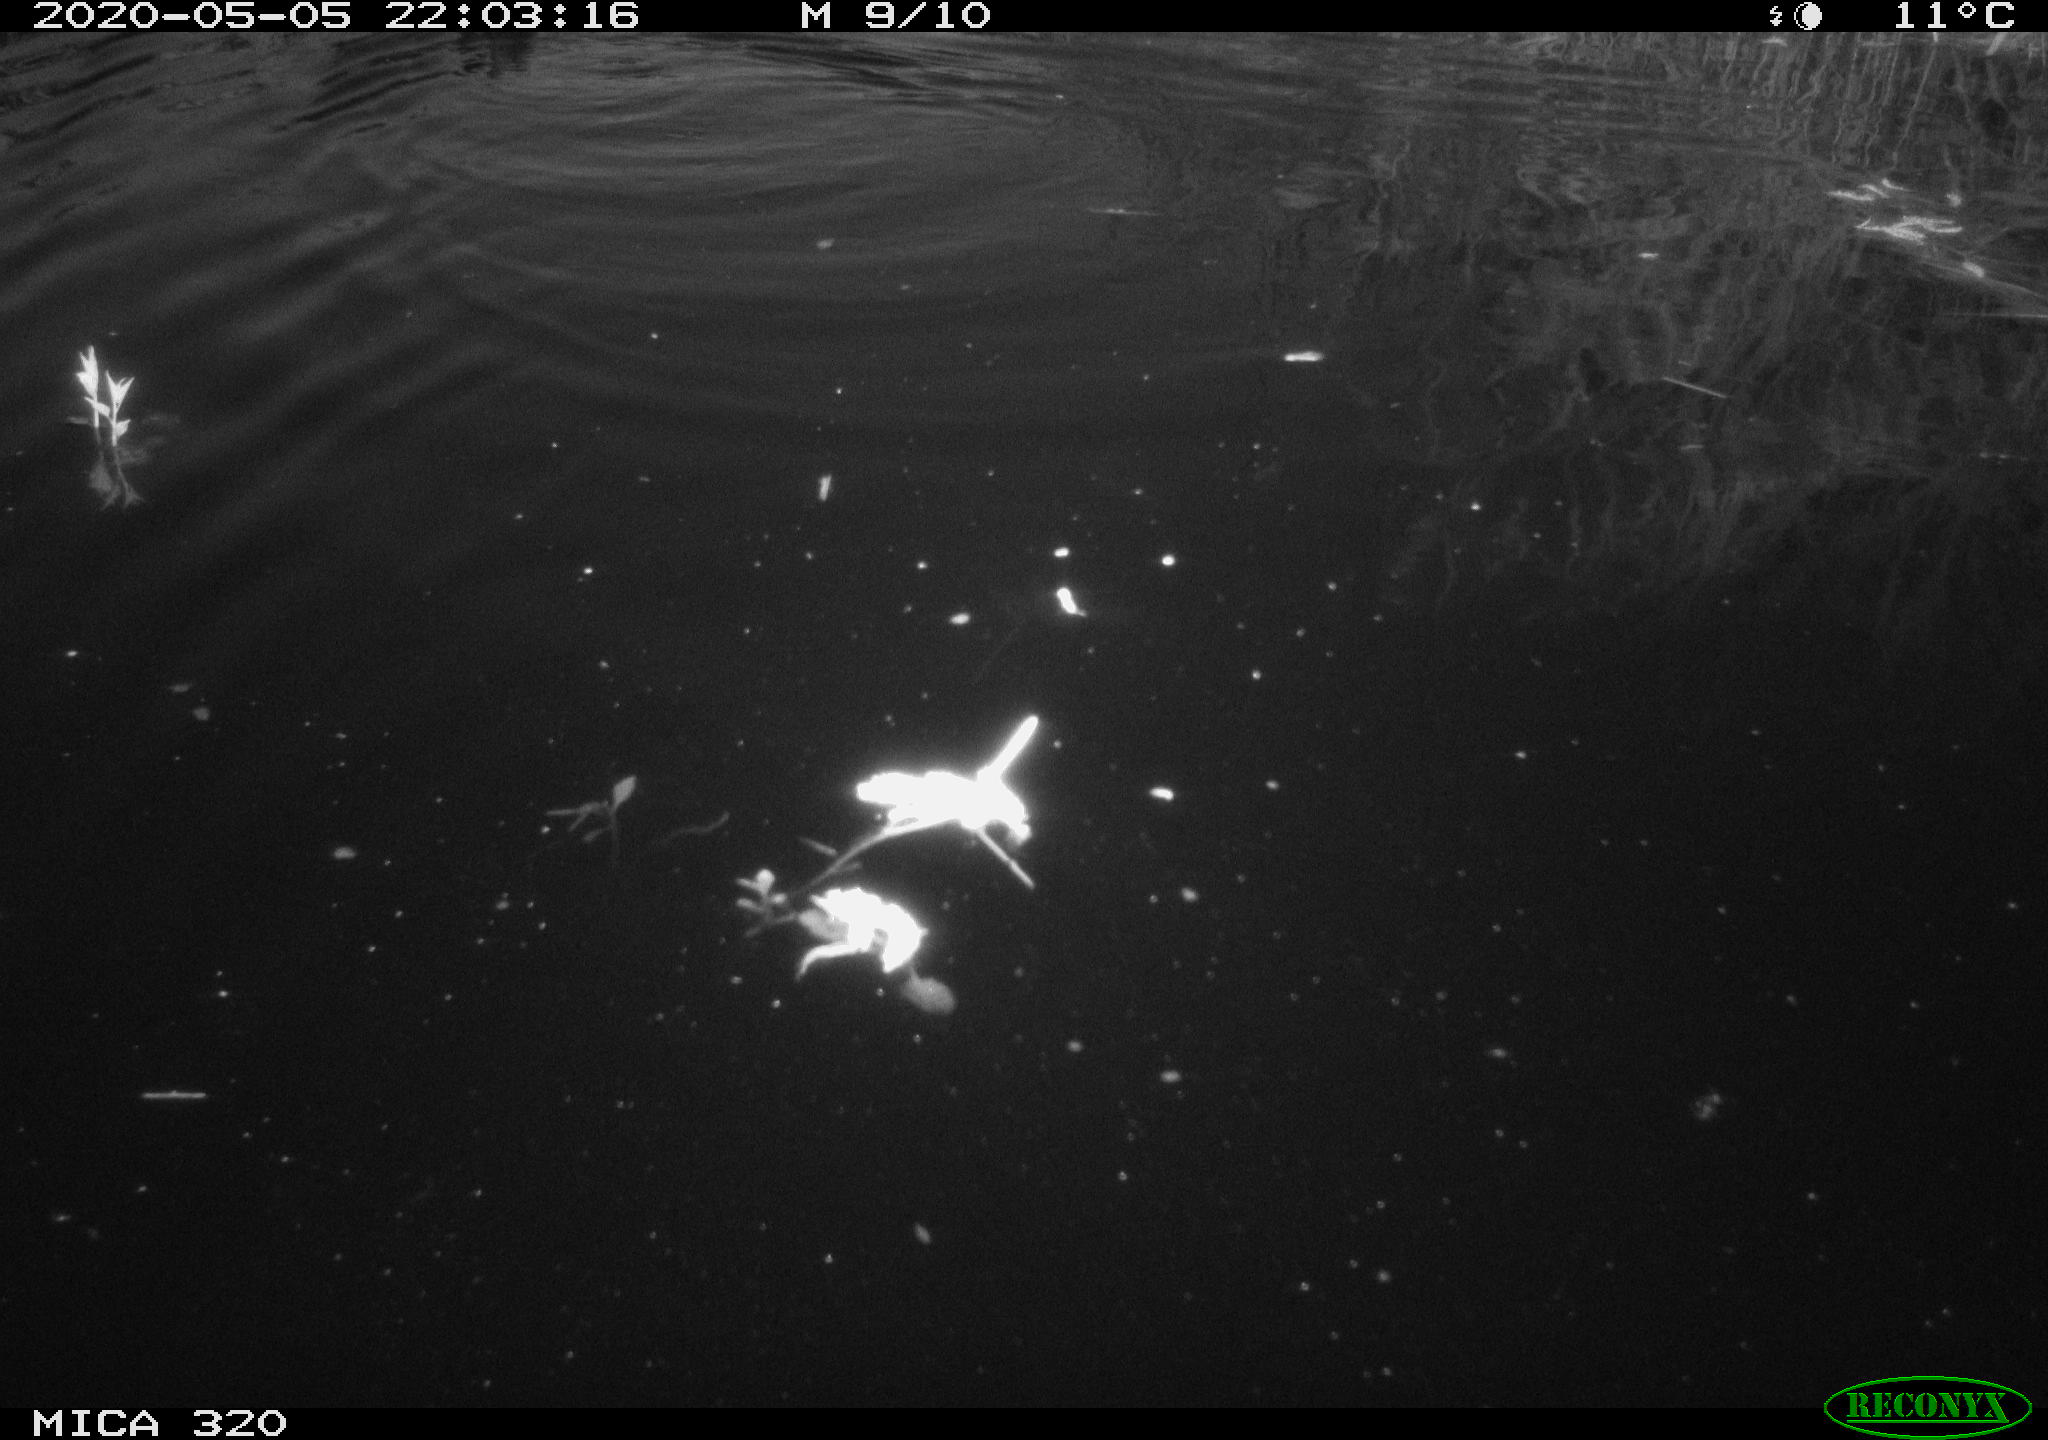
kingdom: Animalia
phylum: Chordata
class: Aves
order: Anseriformes
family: Anatidae
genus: Anas
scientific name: Anas platyrhynchos
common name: Mallard
